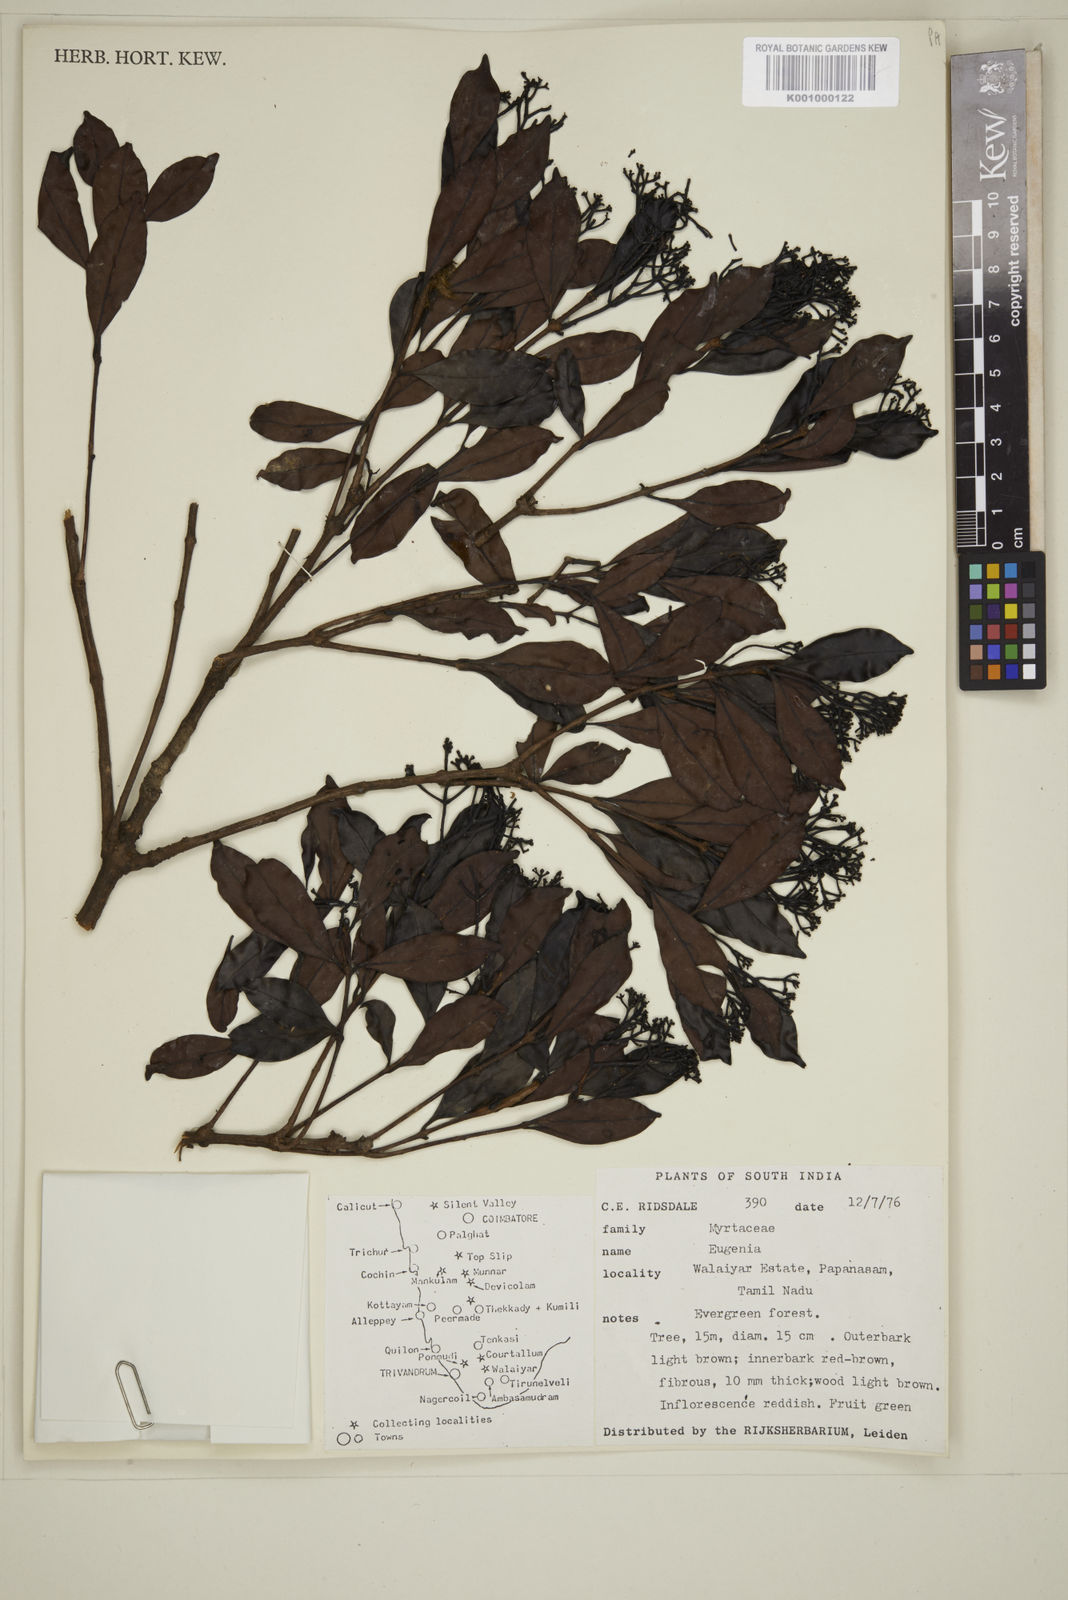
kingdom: Plantae
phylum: Tracheophyta
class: Magnoliopsida
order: Myrtales
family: Myrtaceae
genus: Eugenia
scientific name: Eugenia
